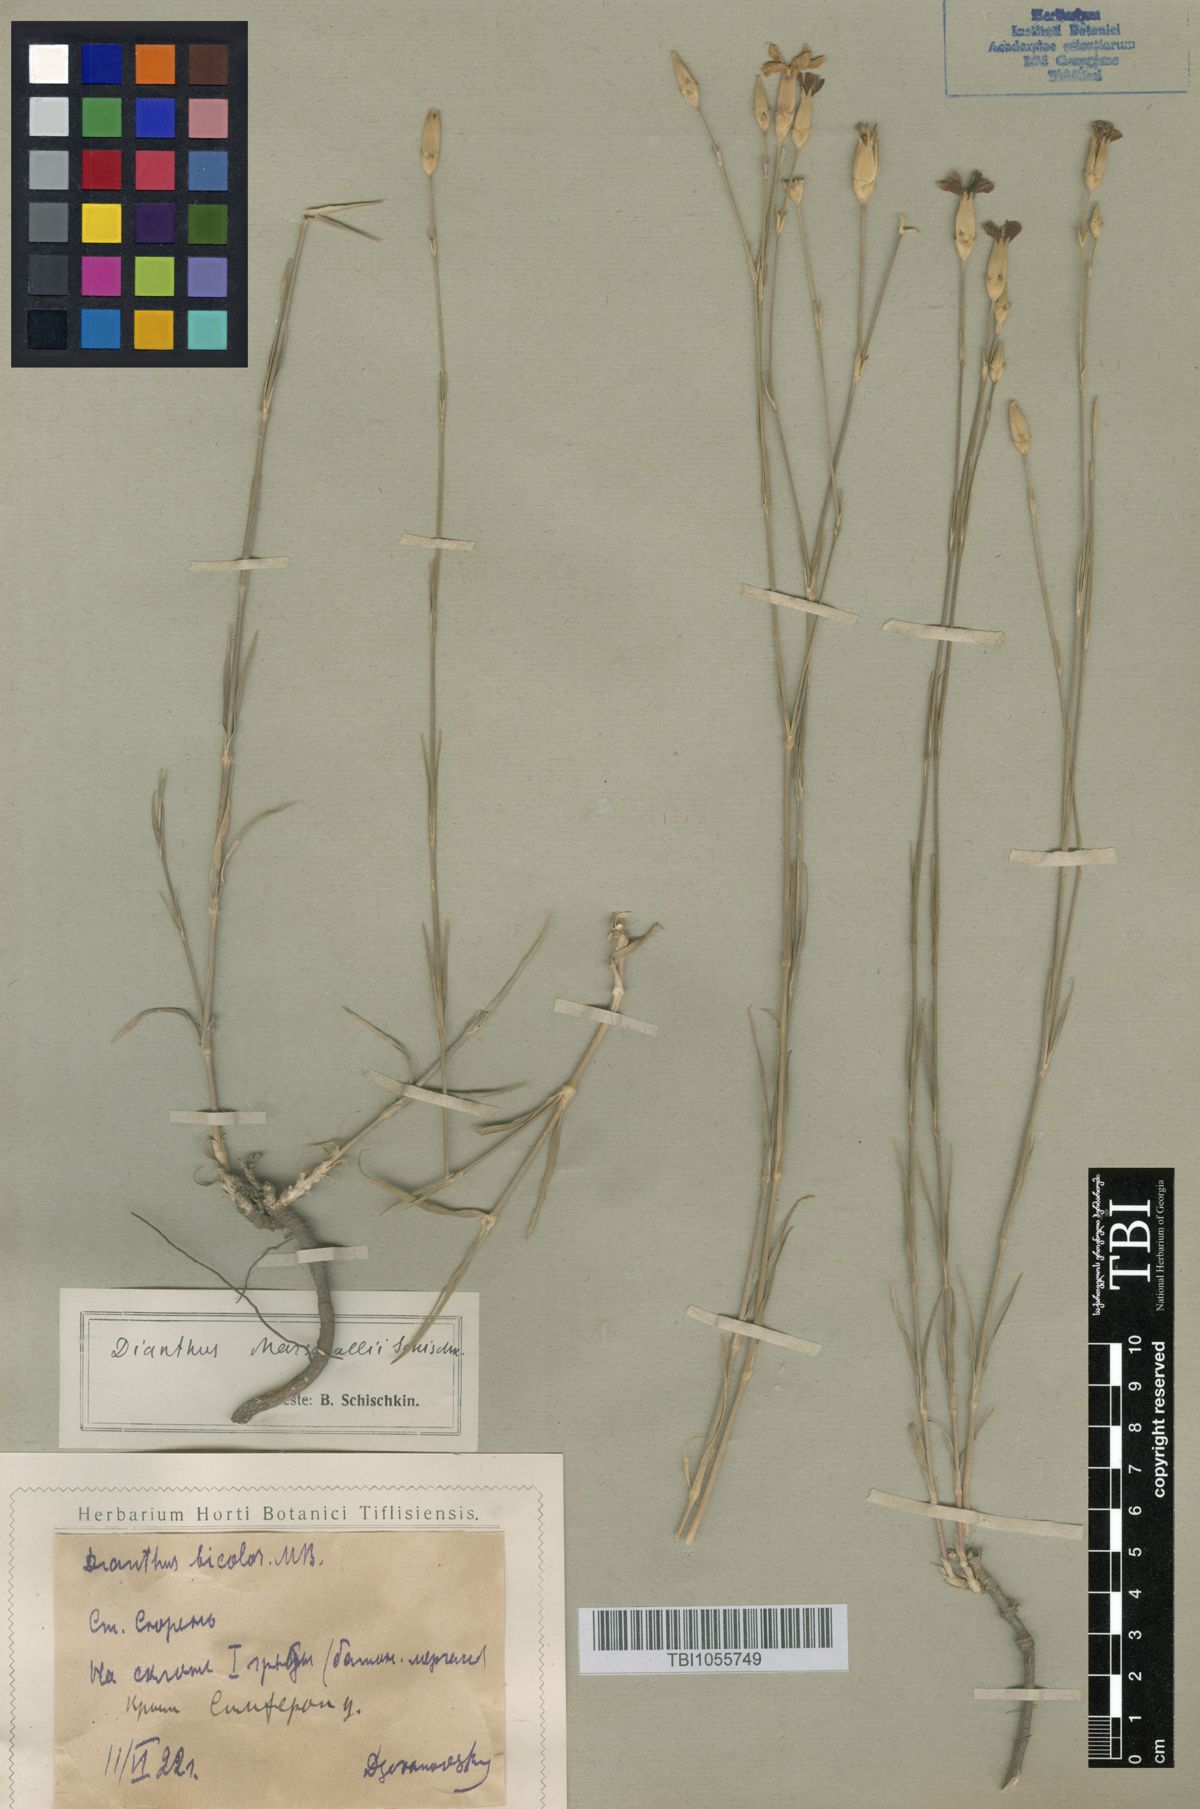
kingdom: Plantae
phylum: Tracheophyta
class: Magnoliopsida
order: Caryophyllales
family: Caryophyllaceae
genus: Dianthus
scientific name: Dianthus marschallii
